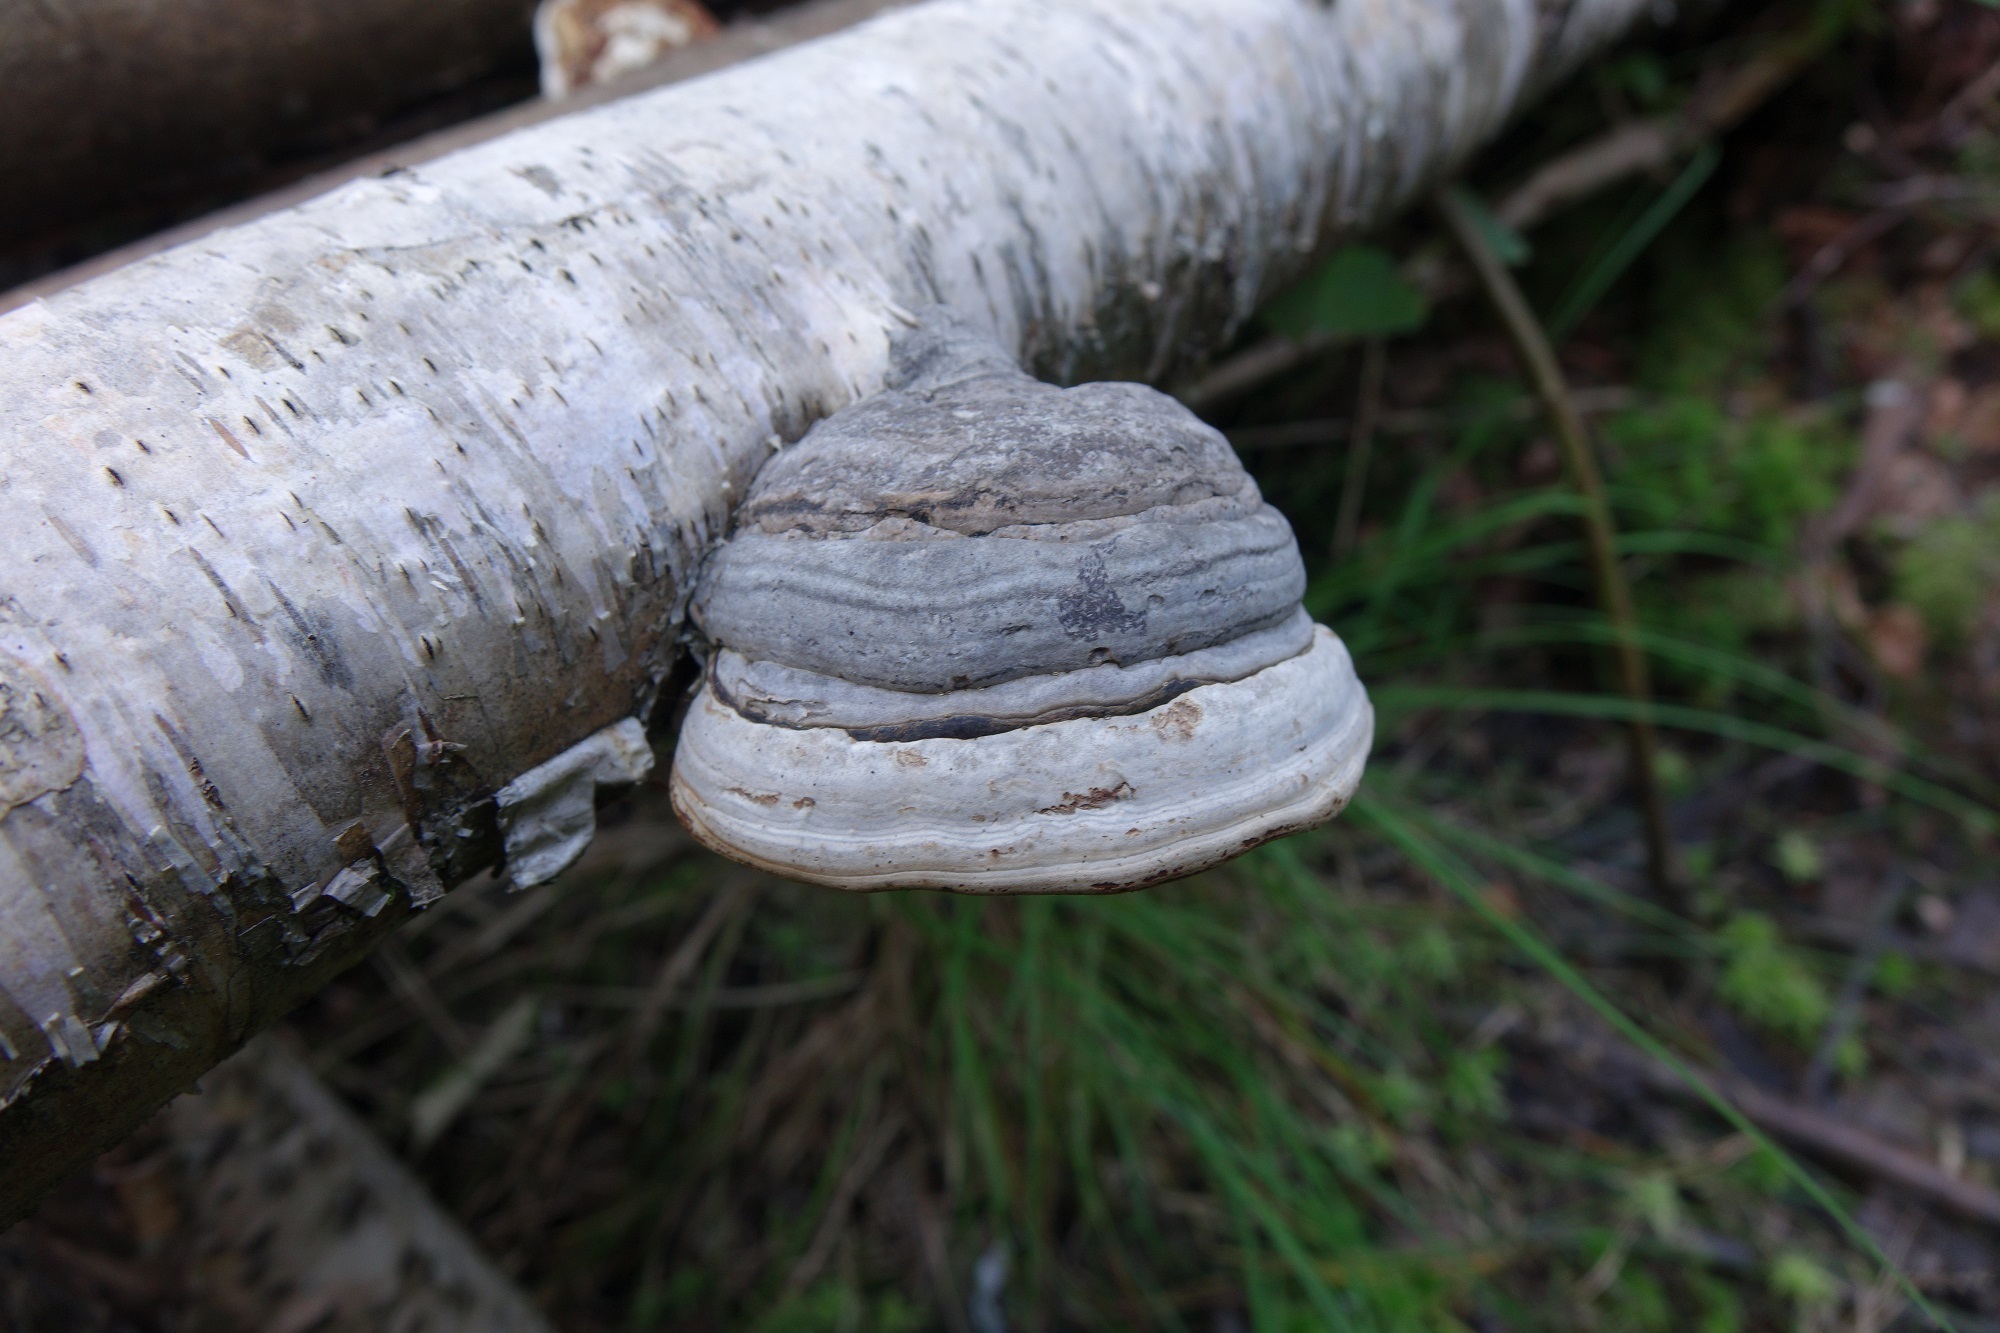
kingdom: Fungi
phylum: Basidiomycota
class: Agaricomycetes
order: Polyporales
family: Polyporaceae
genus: Fomes
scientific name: Fomes fomentarius
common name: Hoof fungus
